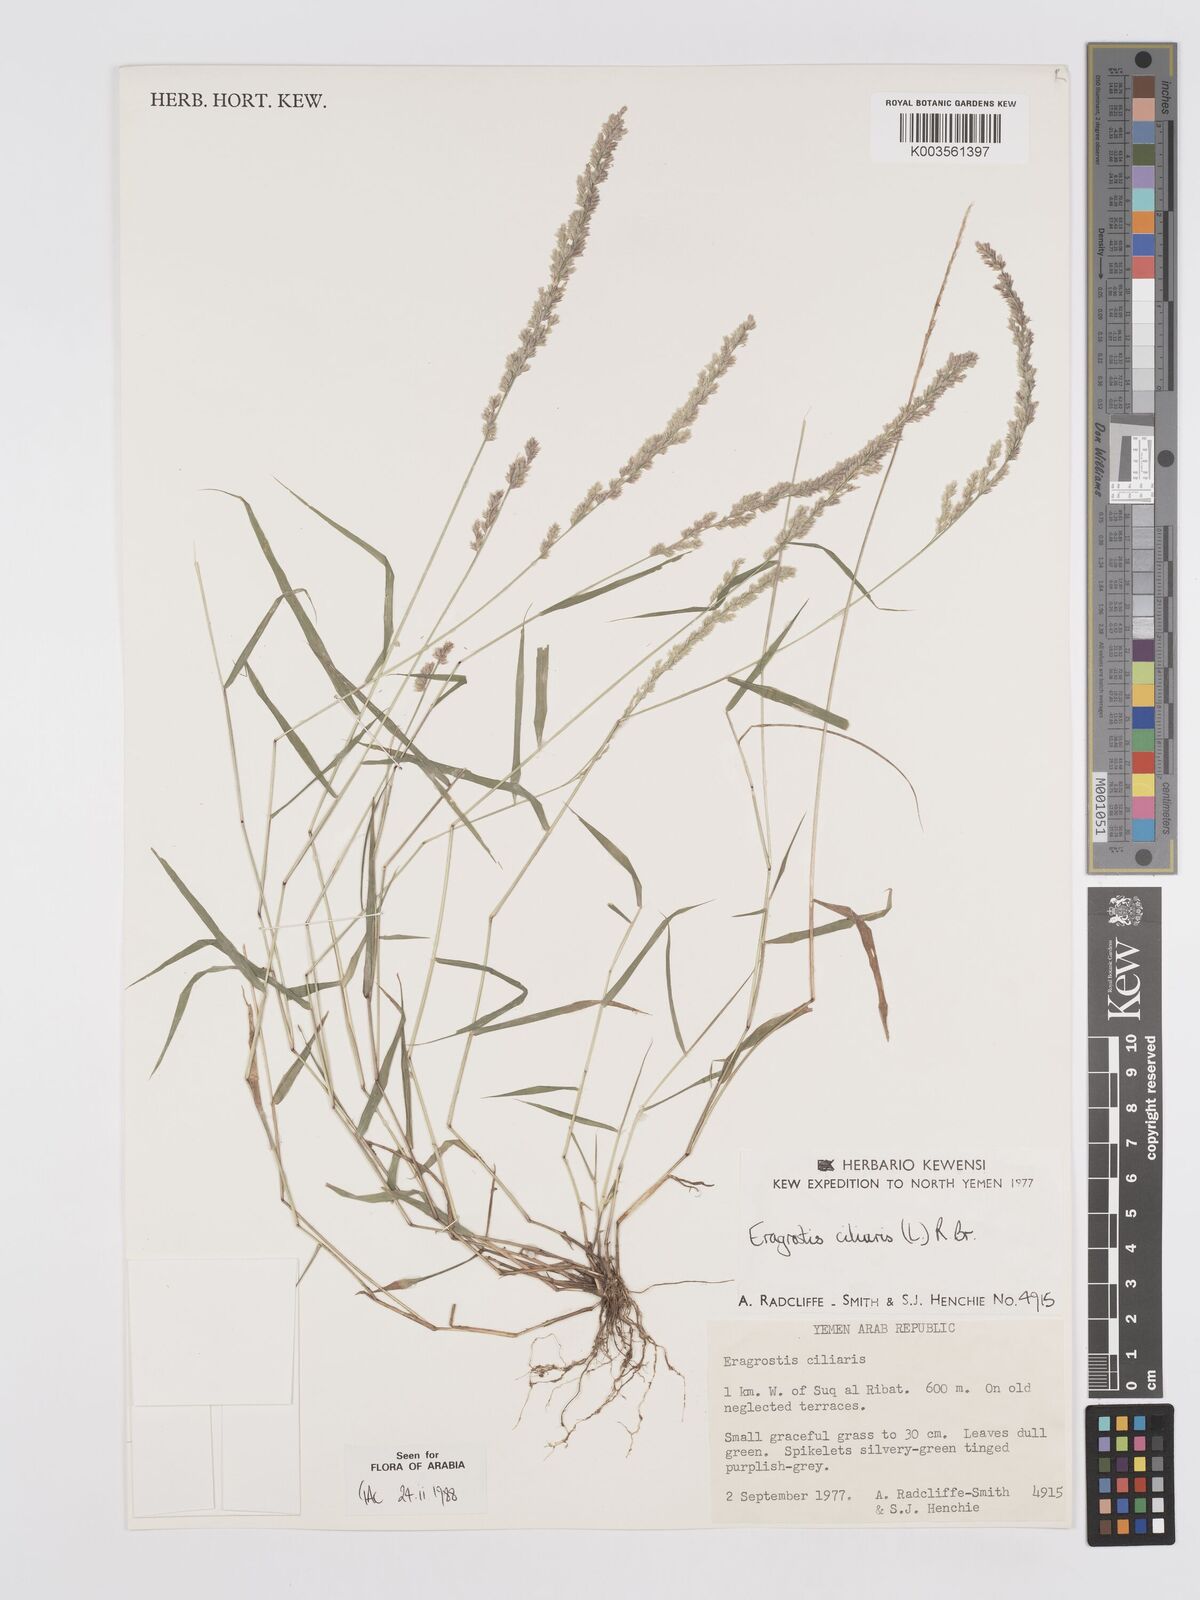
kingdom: Plantae
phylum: Tracheophyta
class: Liliopsida
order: Poales
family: Poaceae
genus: Eragrostis
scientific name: Eragrostis ciliaris
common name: Gophertail lovegrass
